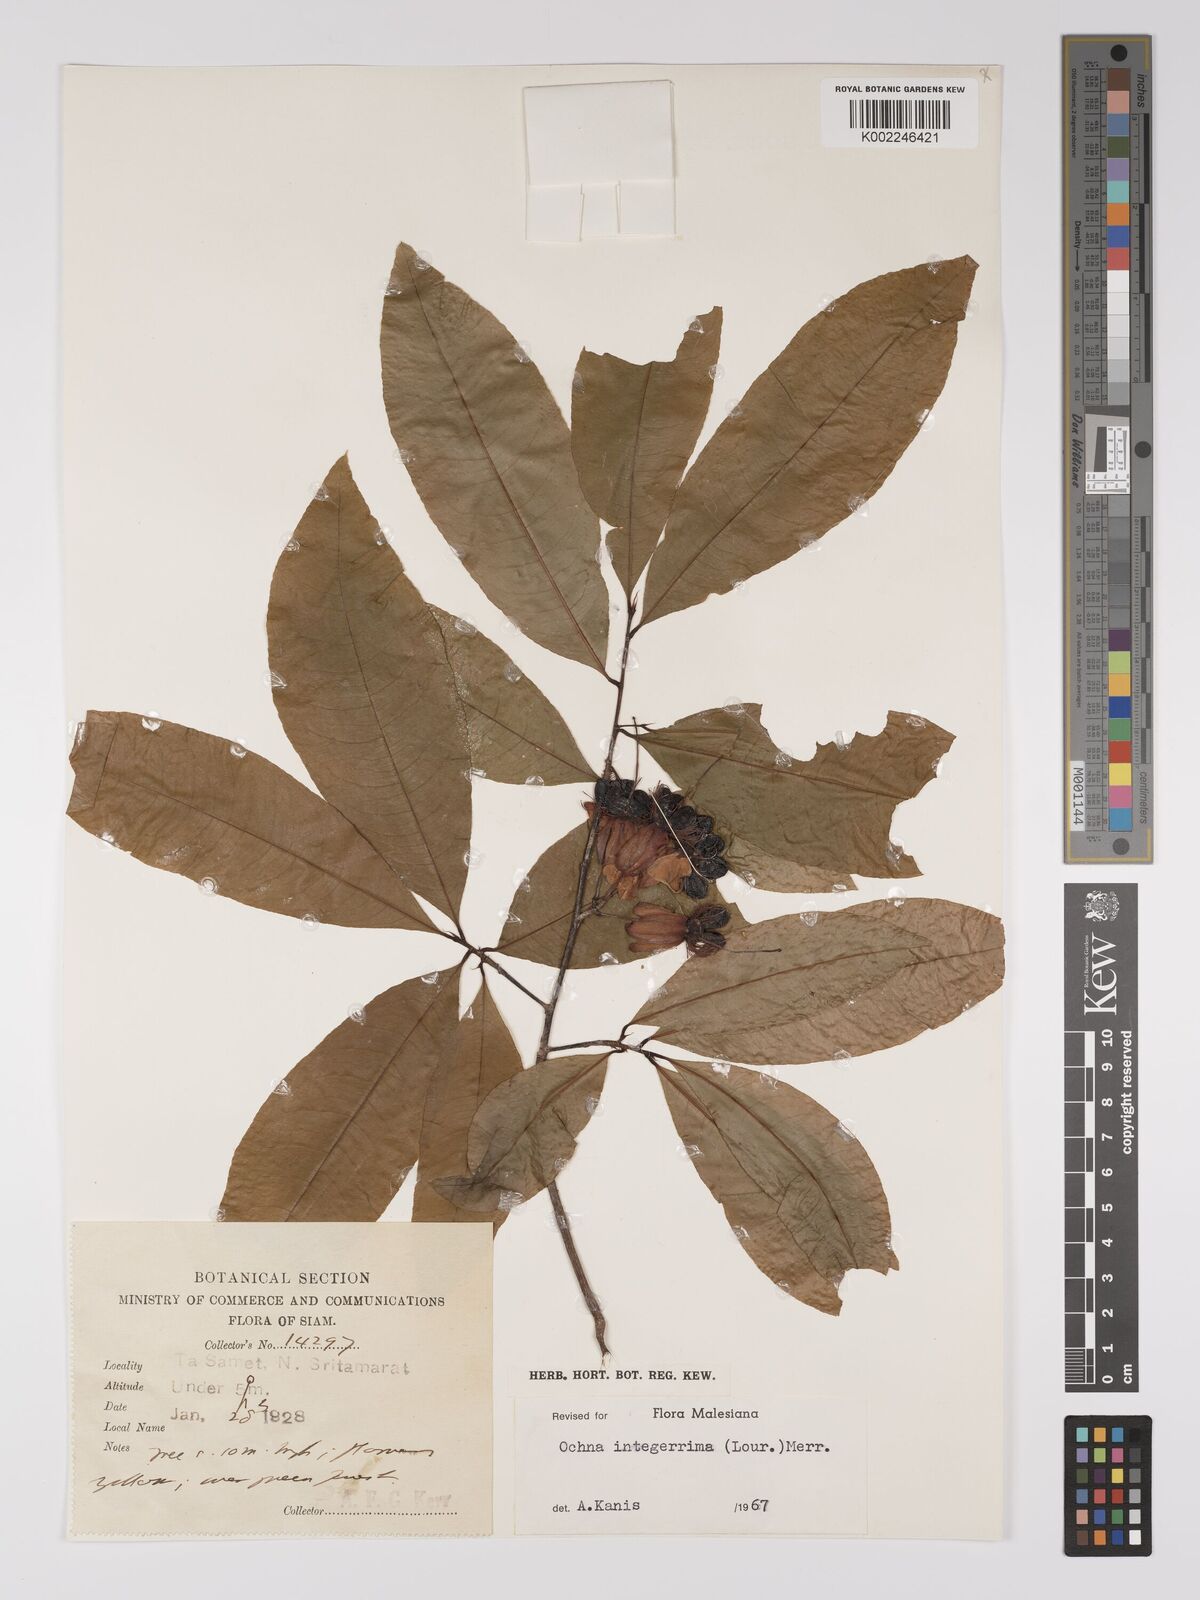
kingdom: Plantae
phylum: Tracheophyta
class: Magnoliopsida
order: Malpighiales
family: Ochnaceae
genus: Ochna
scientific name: Ochna integerrima
